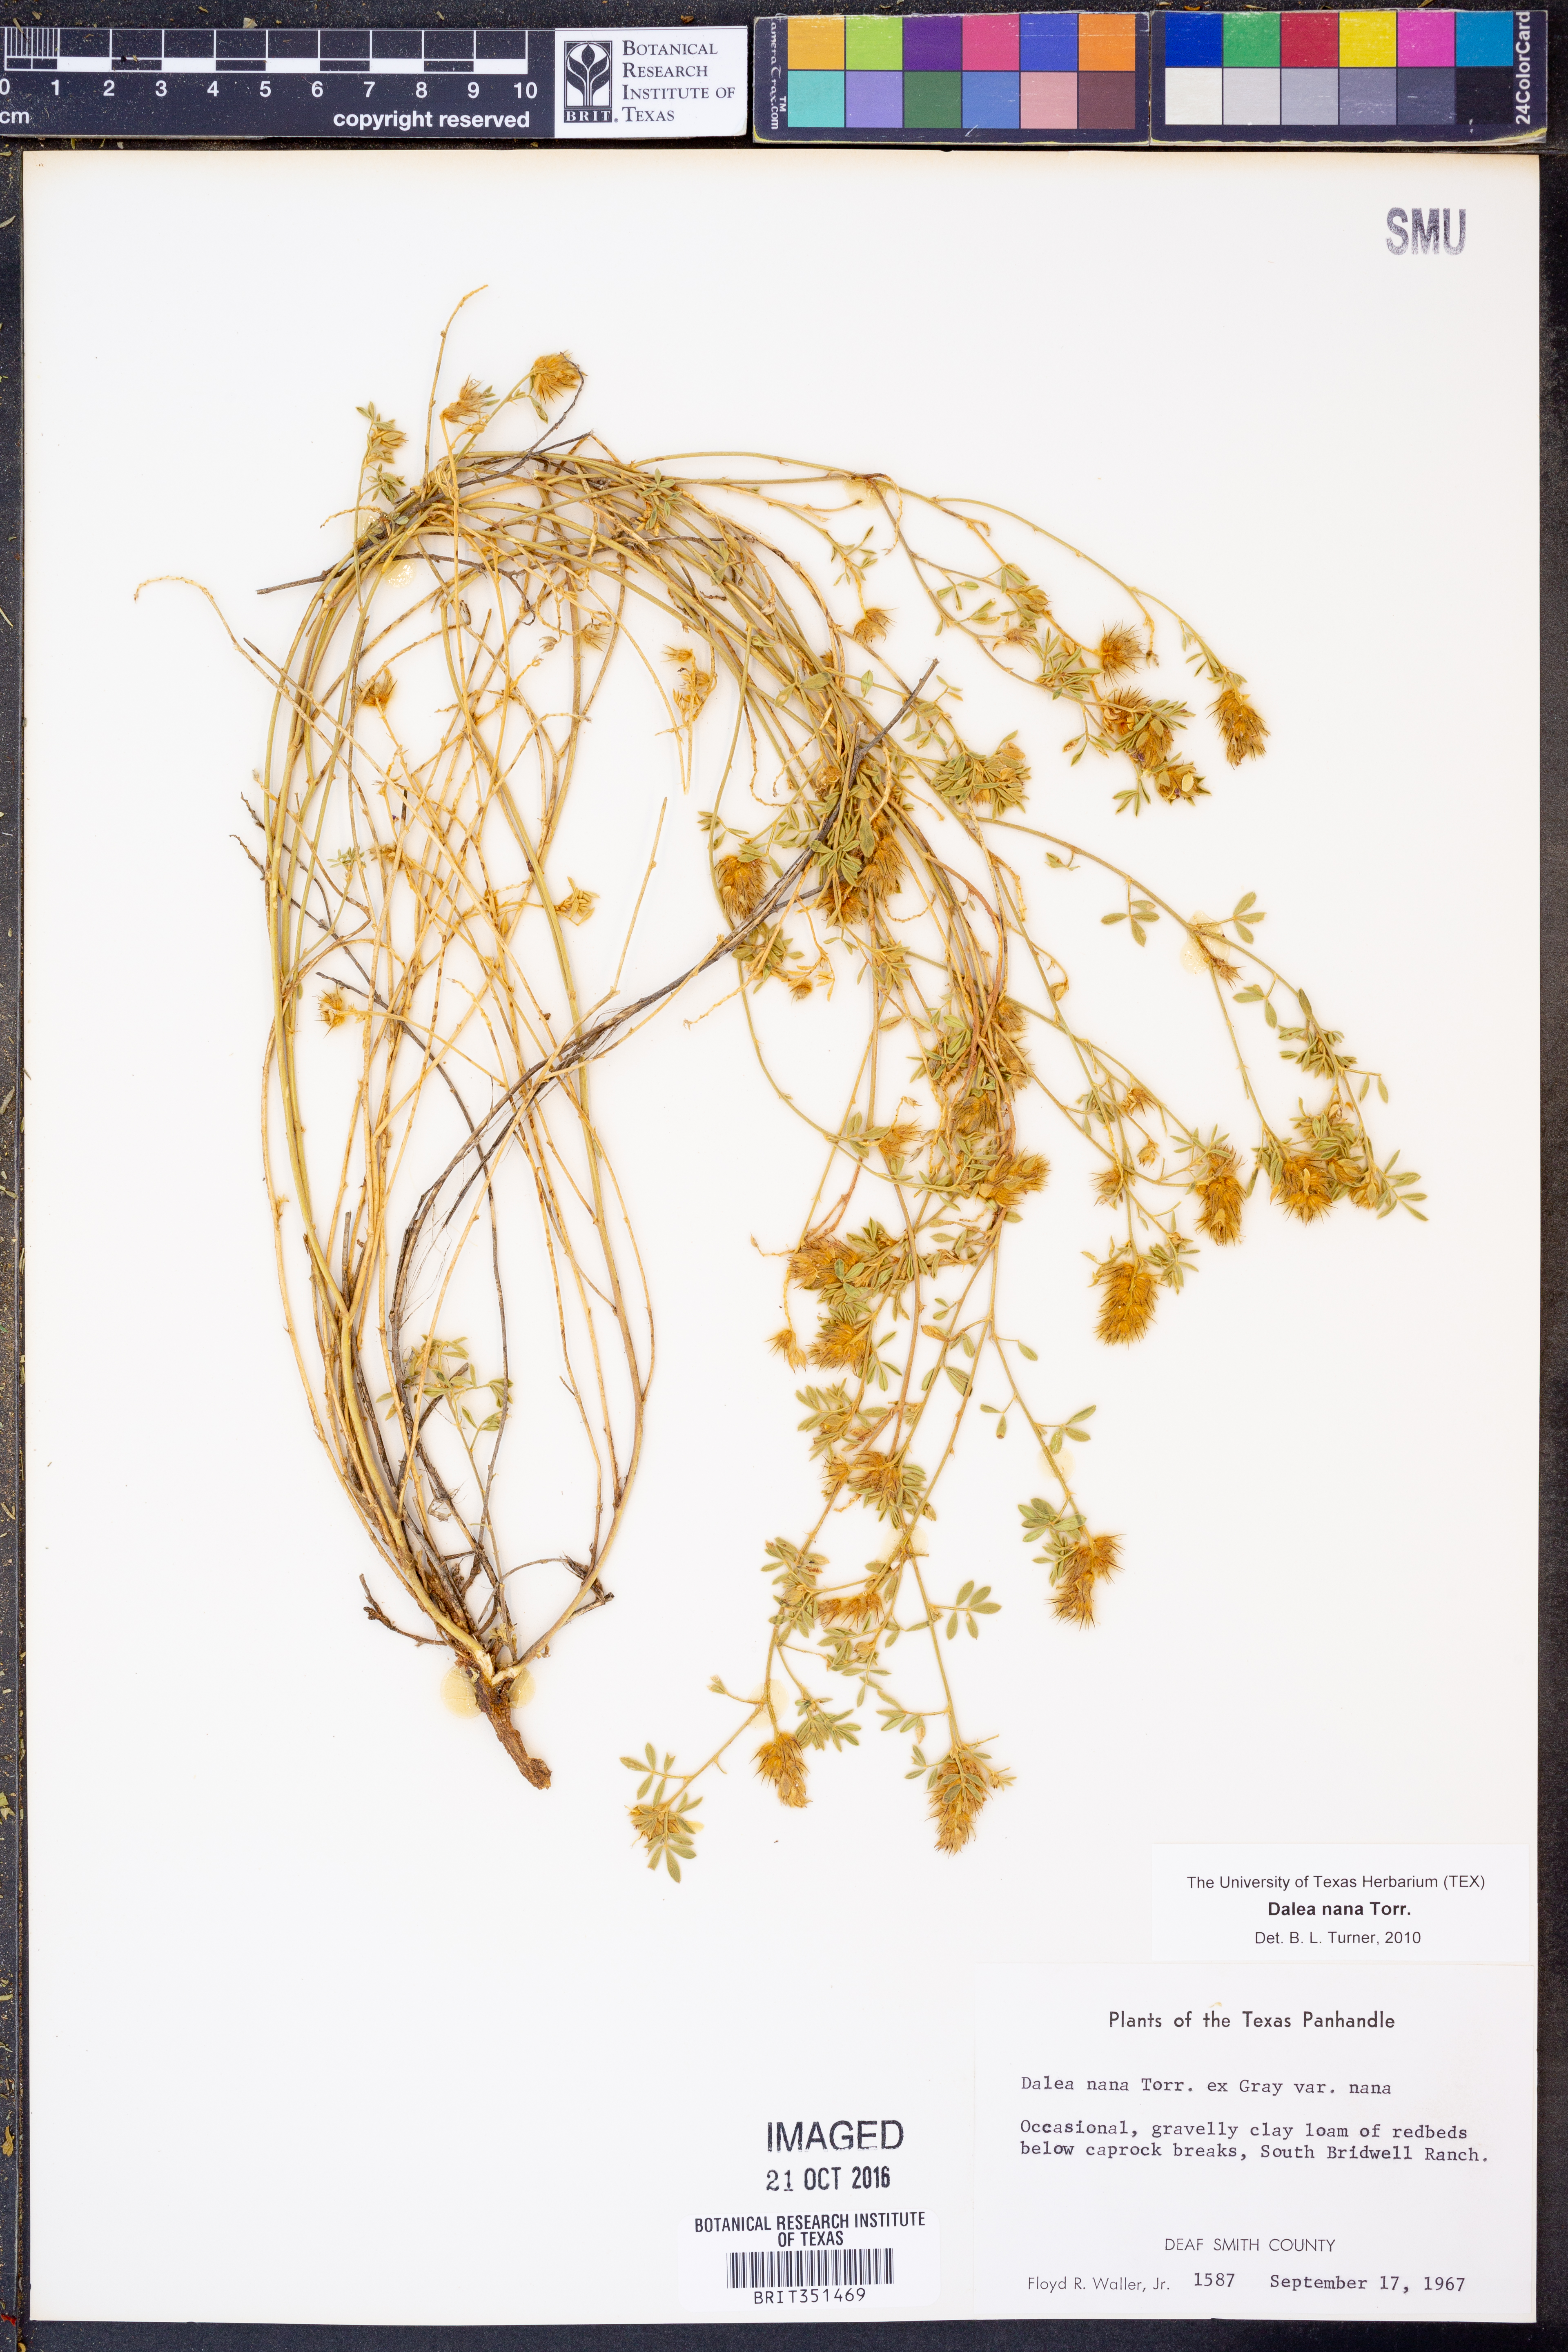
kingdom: Plantae
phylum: Tracheophyta
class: Magnoliopsida
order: Fabales
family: Fabaceae
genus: Dalea
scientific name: Dalea nana
